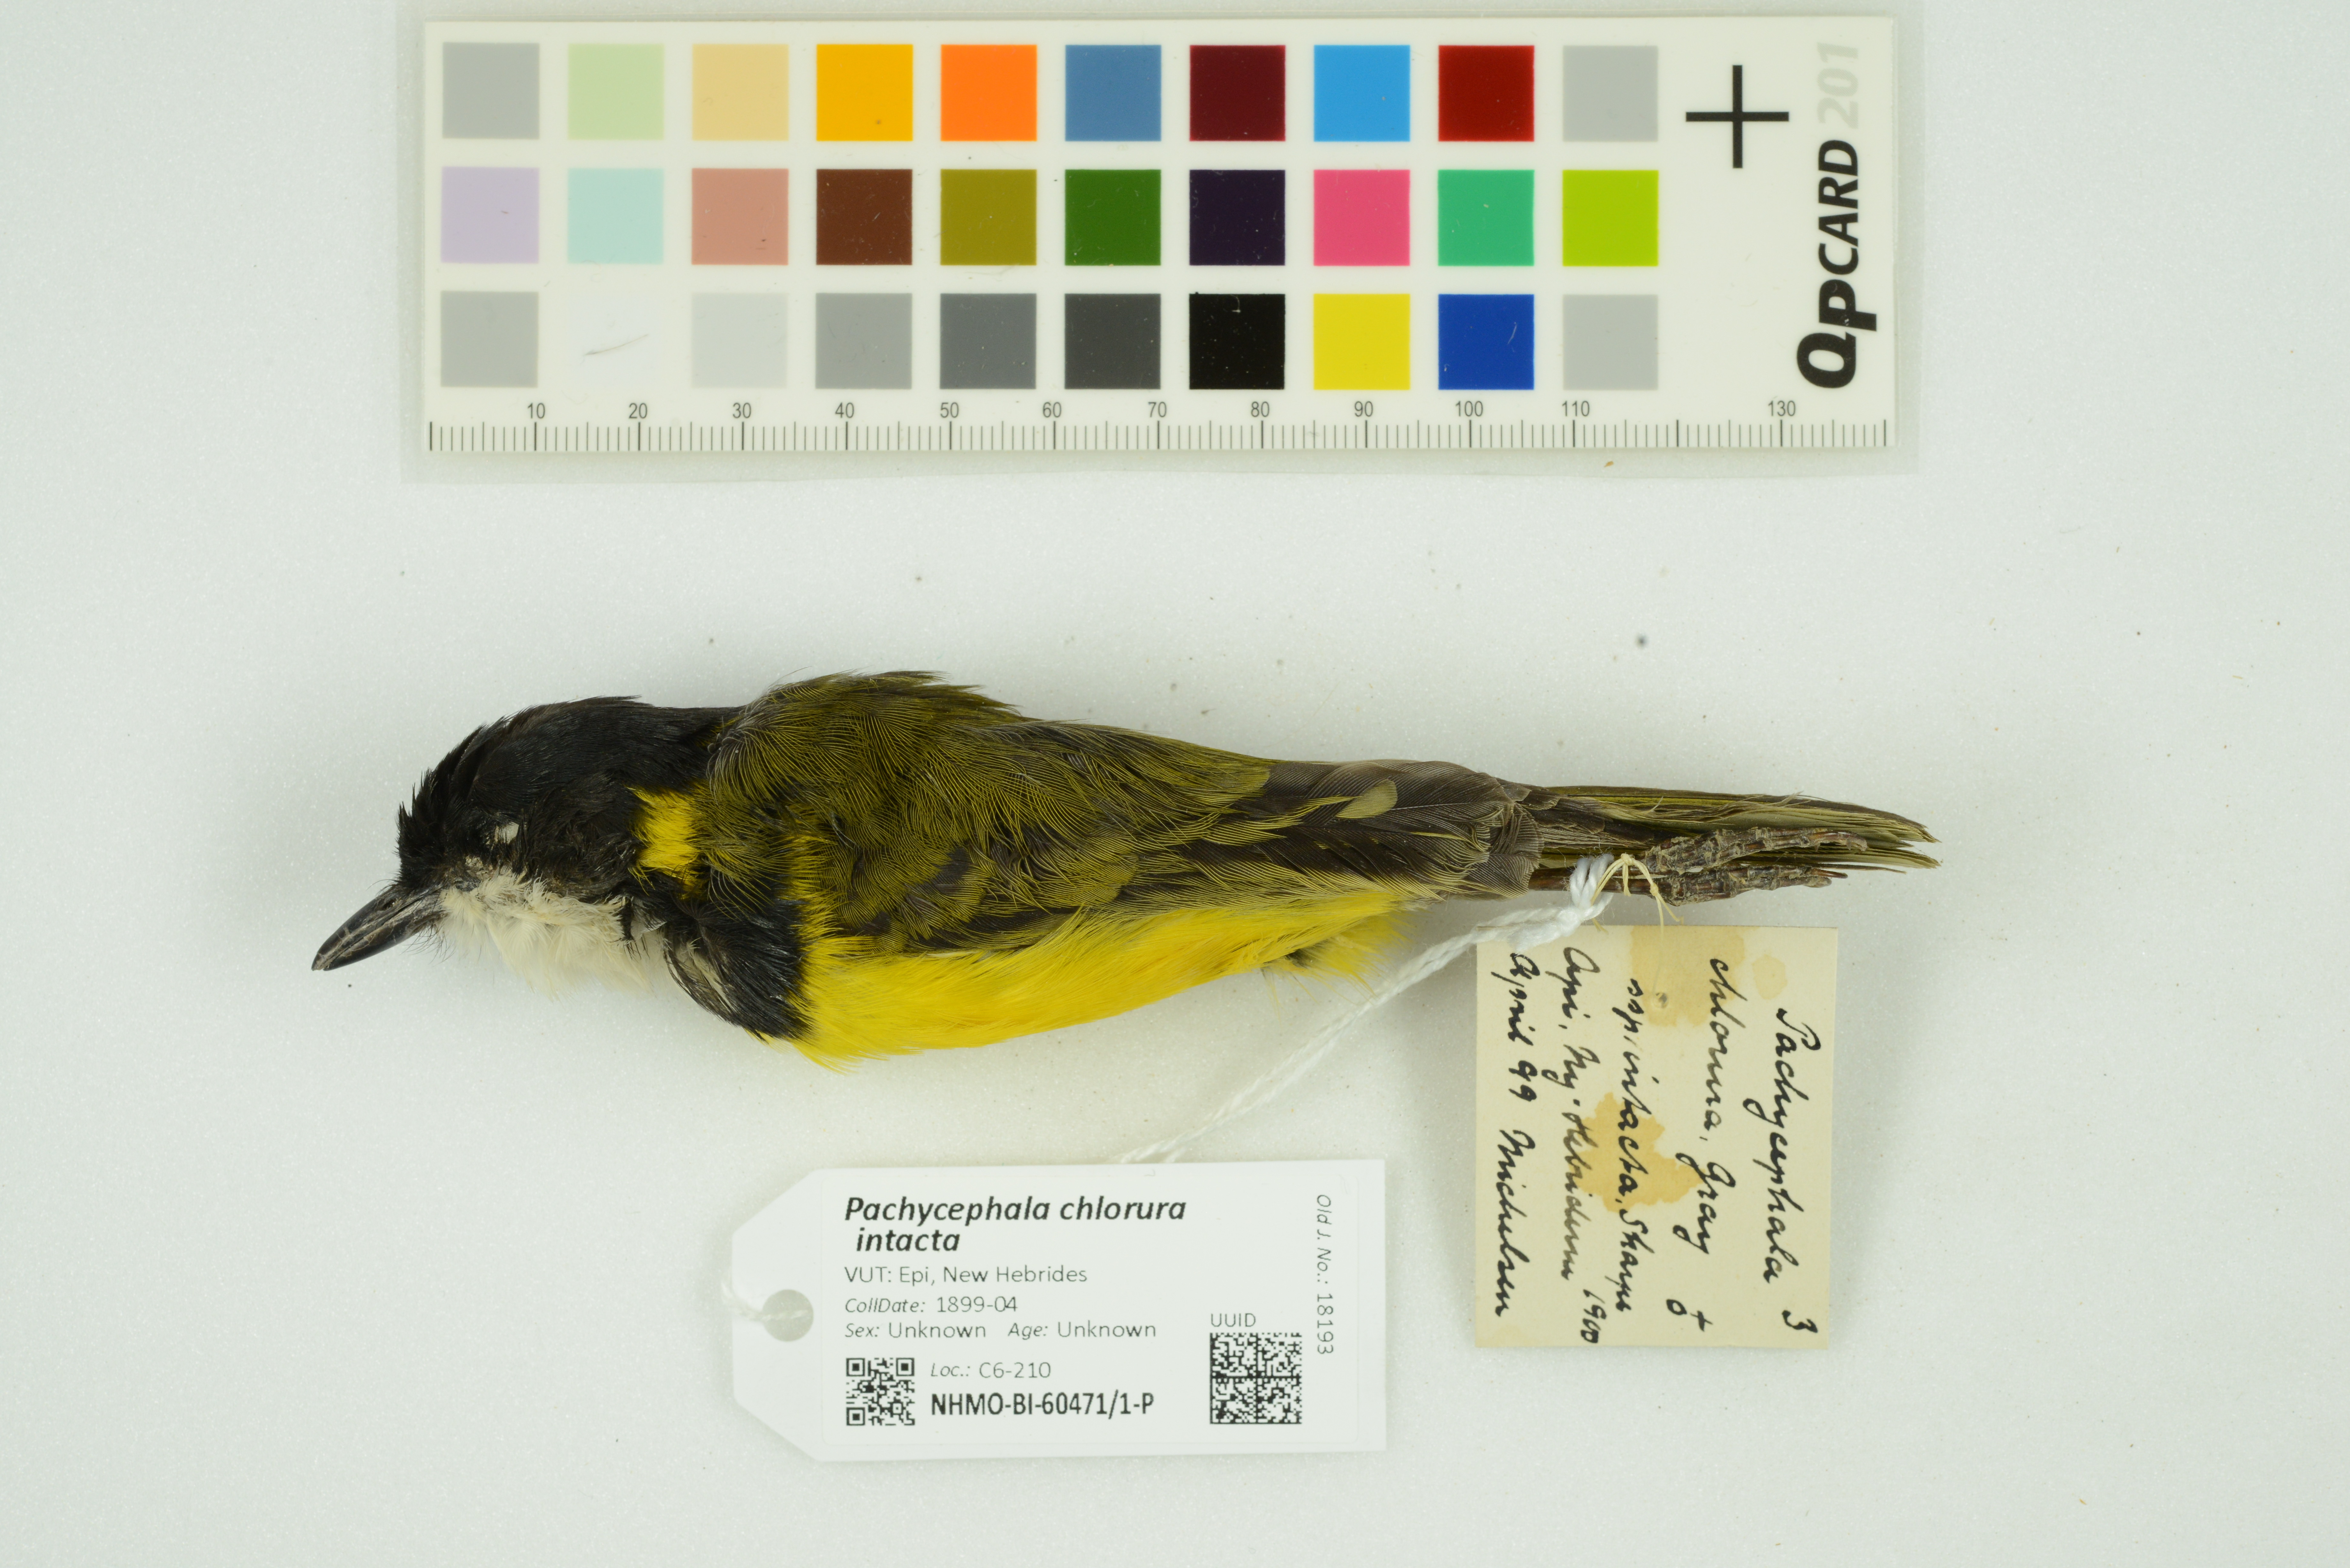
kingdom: Animalia
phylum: Chordata
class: Aves
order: Passeriformes
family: Pachycephalidae
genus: Pachycephala
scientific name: Pachycephala chlorura
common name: Melanesian whistler
